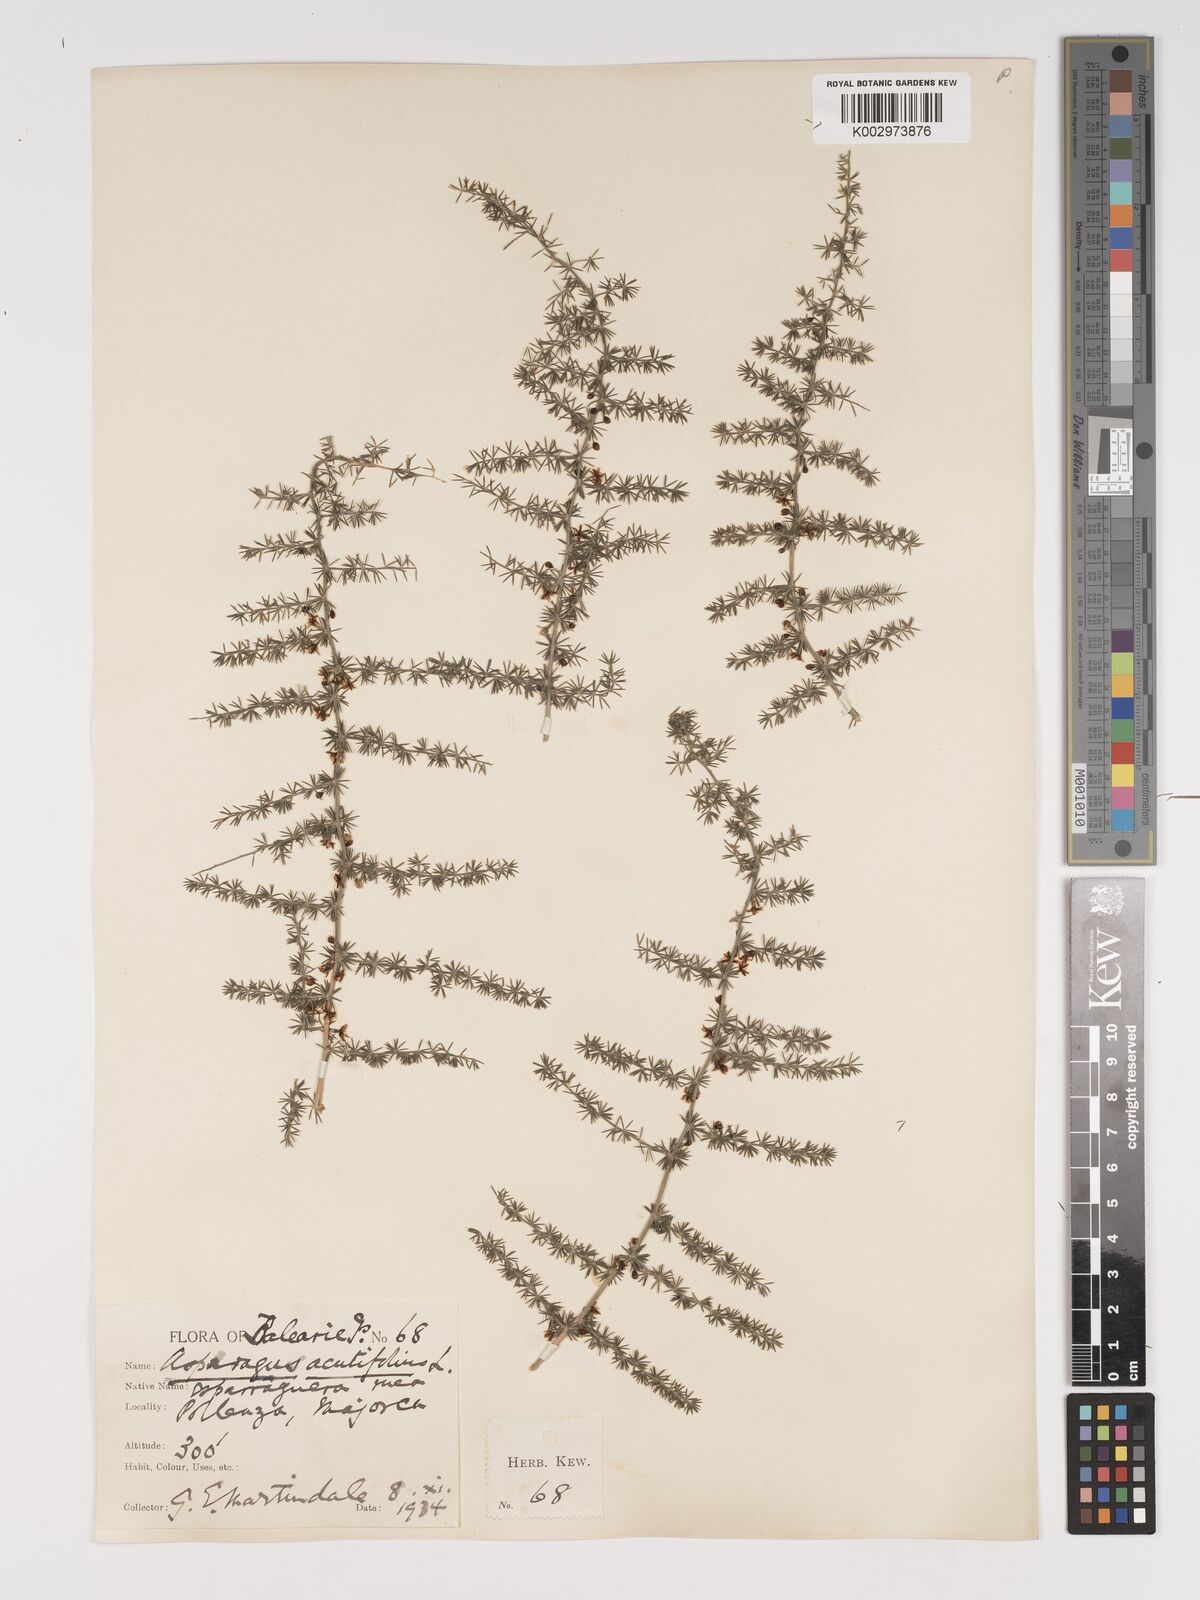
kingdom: Plantae
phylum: Tracheophyta
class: Liliopsida
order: Asparagales
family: Asparagaceae
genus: Asparagus
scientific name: Asparagus acutifolius
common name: Wild asparagus
